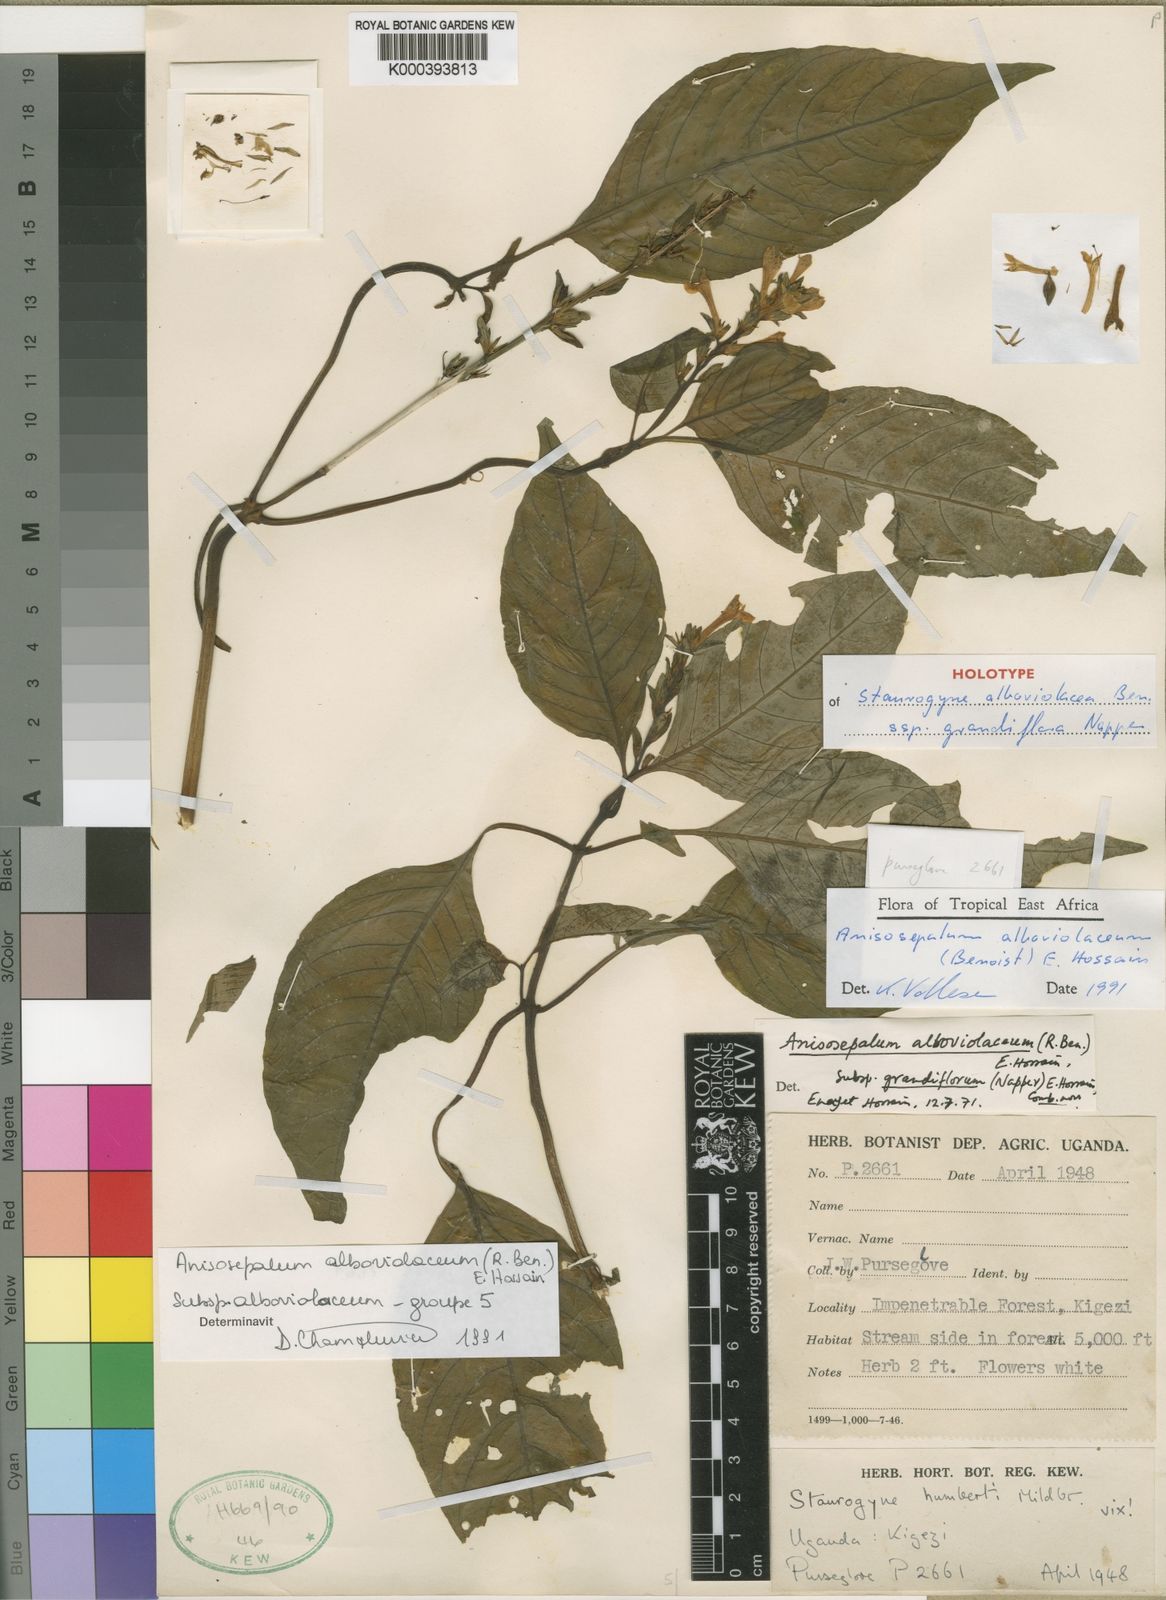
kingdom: Plantae
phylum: Tracheophyta
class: Magnoliopsida
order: Lamiales
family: Acanthaceae
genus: Anisosepalum
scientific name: Anisosepalum alboviolaceum
